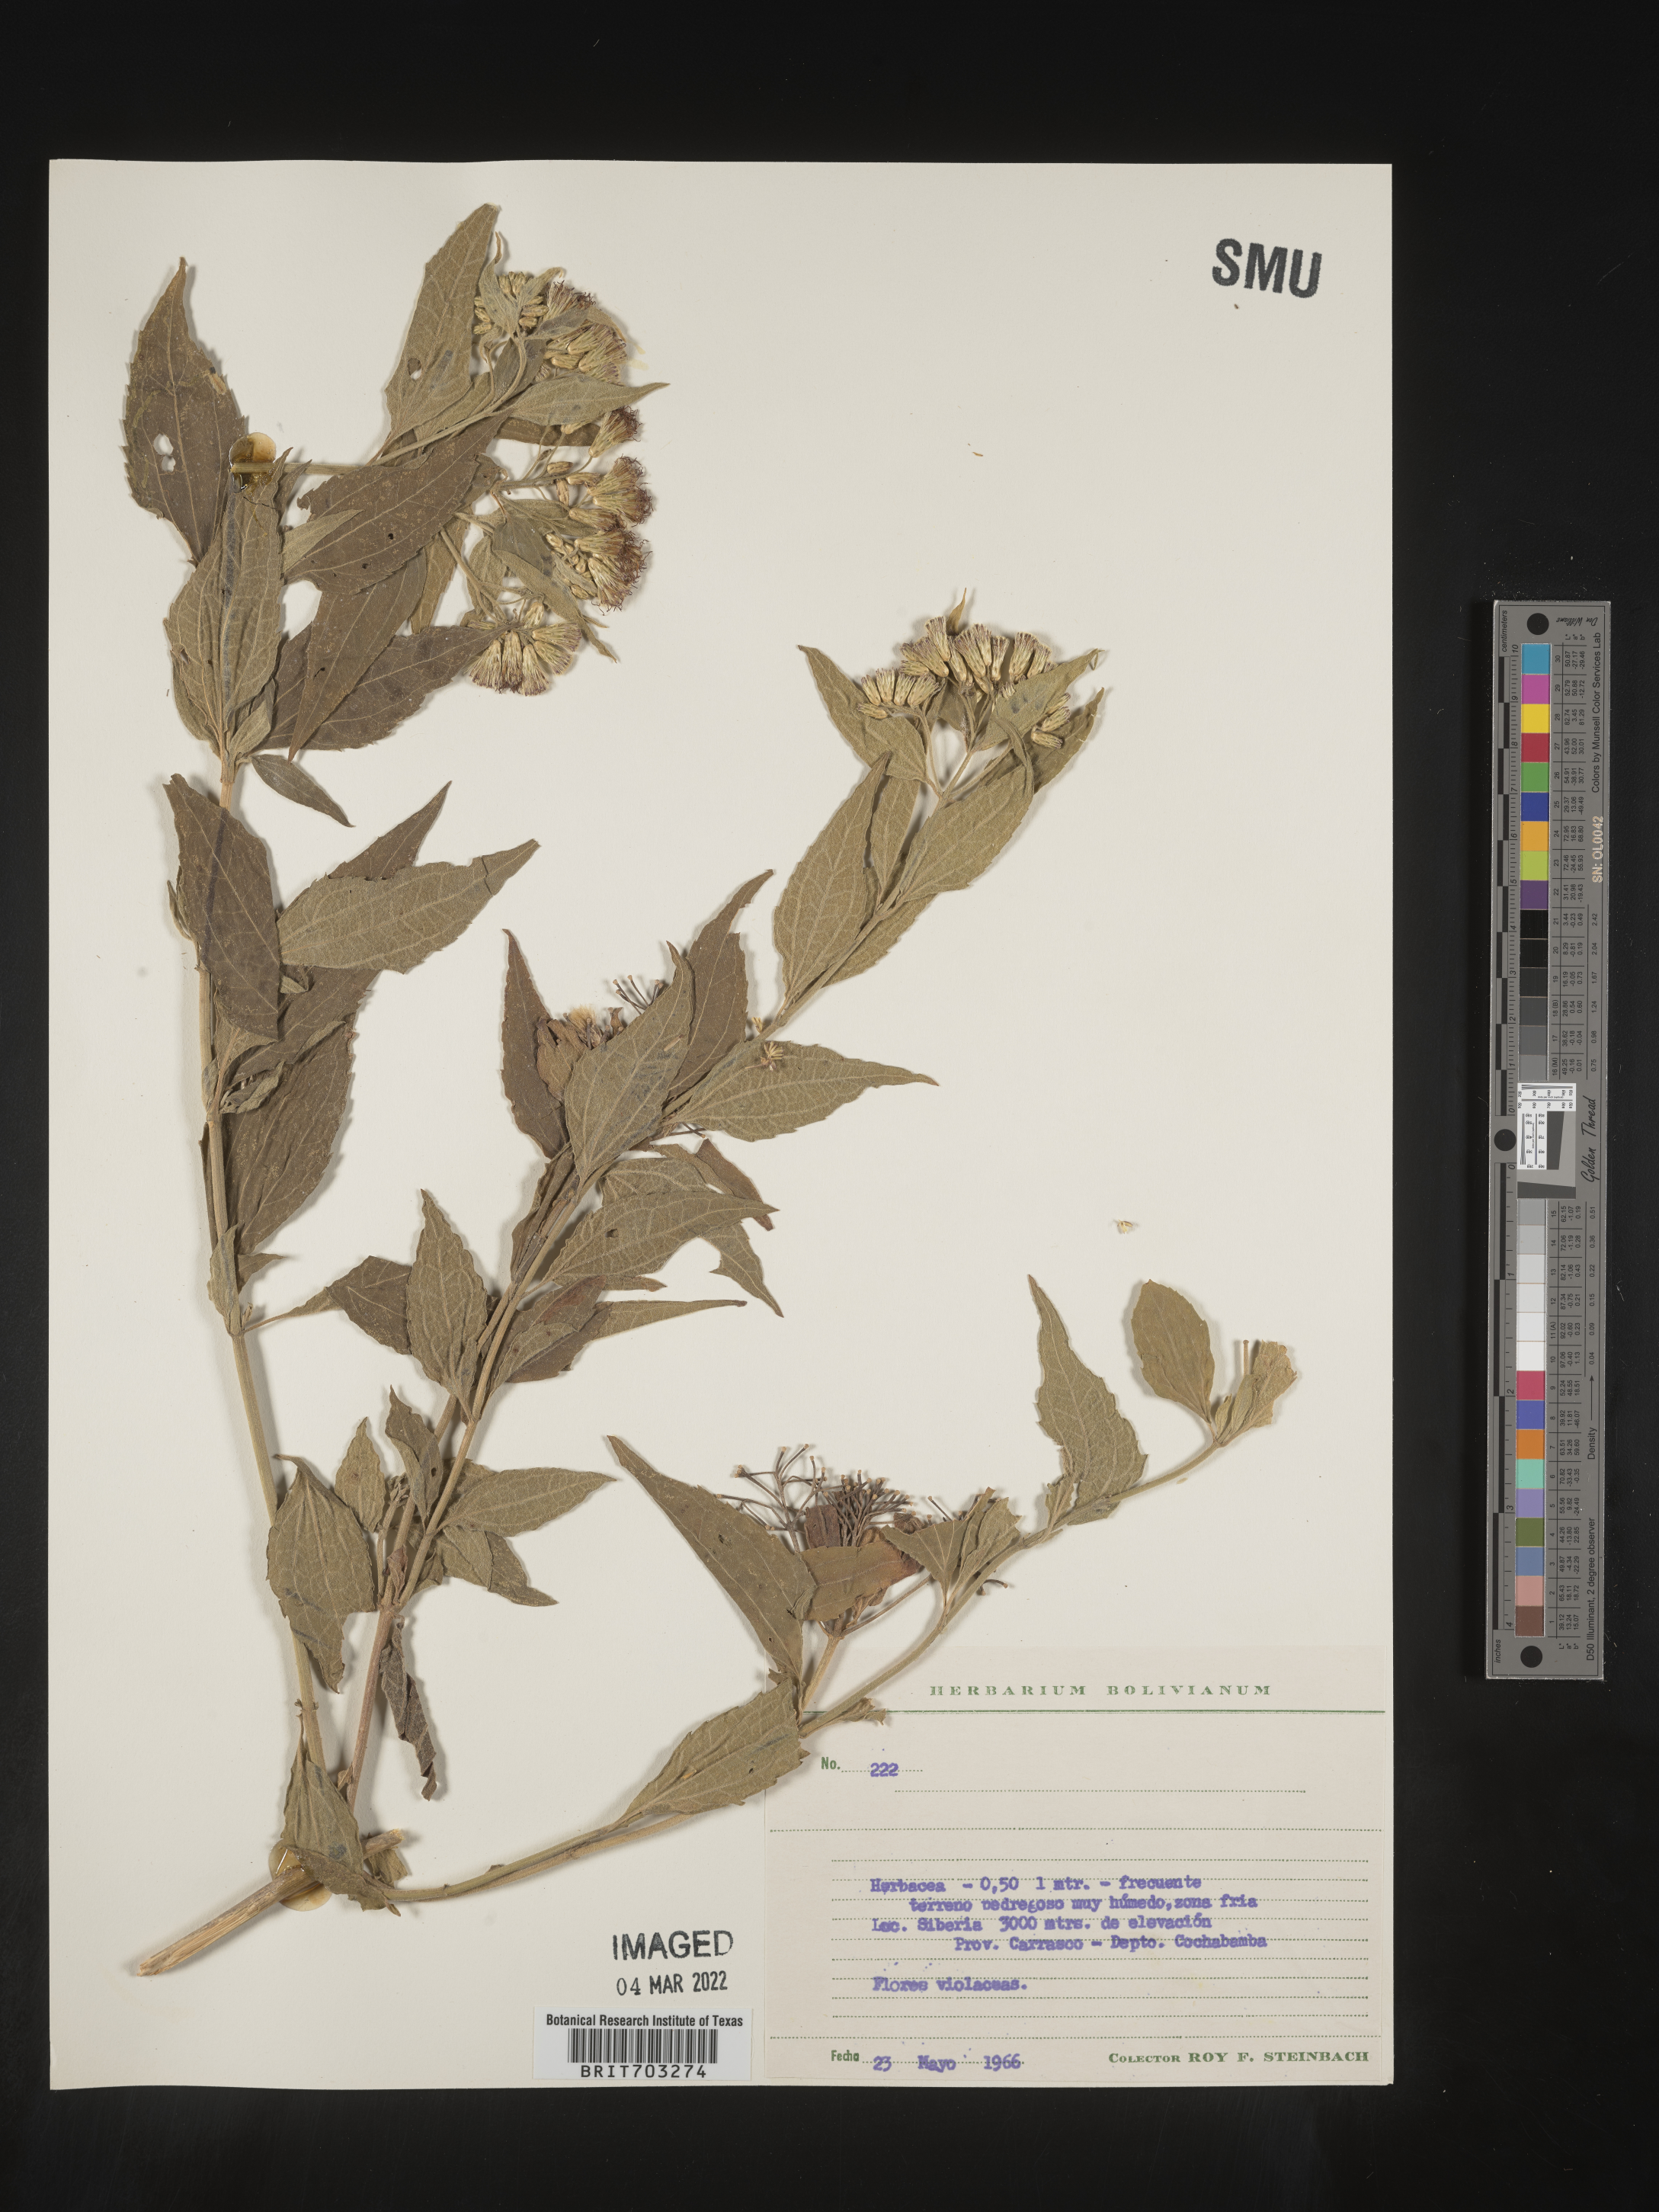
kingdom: Plantae
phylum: Tracheophyta
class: Magnoliopsida
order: Asterales
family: Asteraceae
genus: Eupatorium
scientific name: Eupatorium
